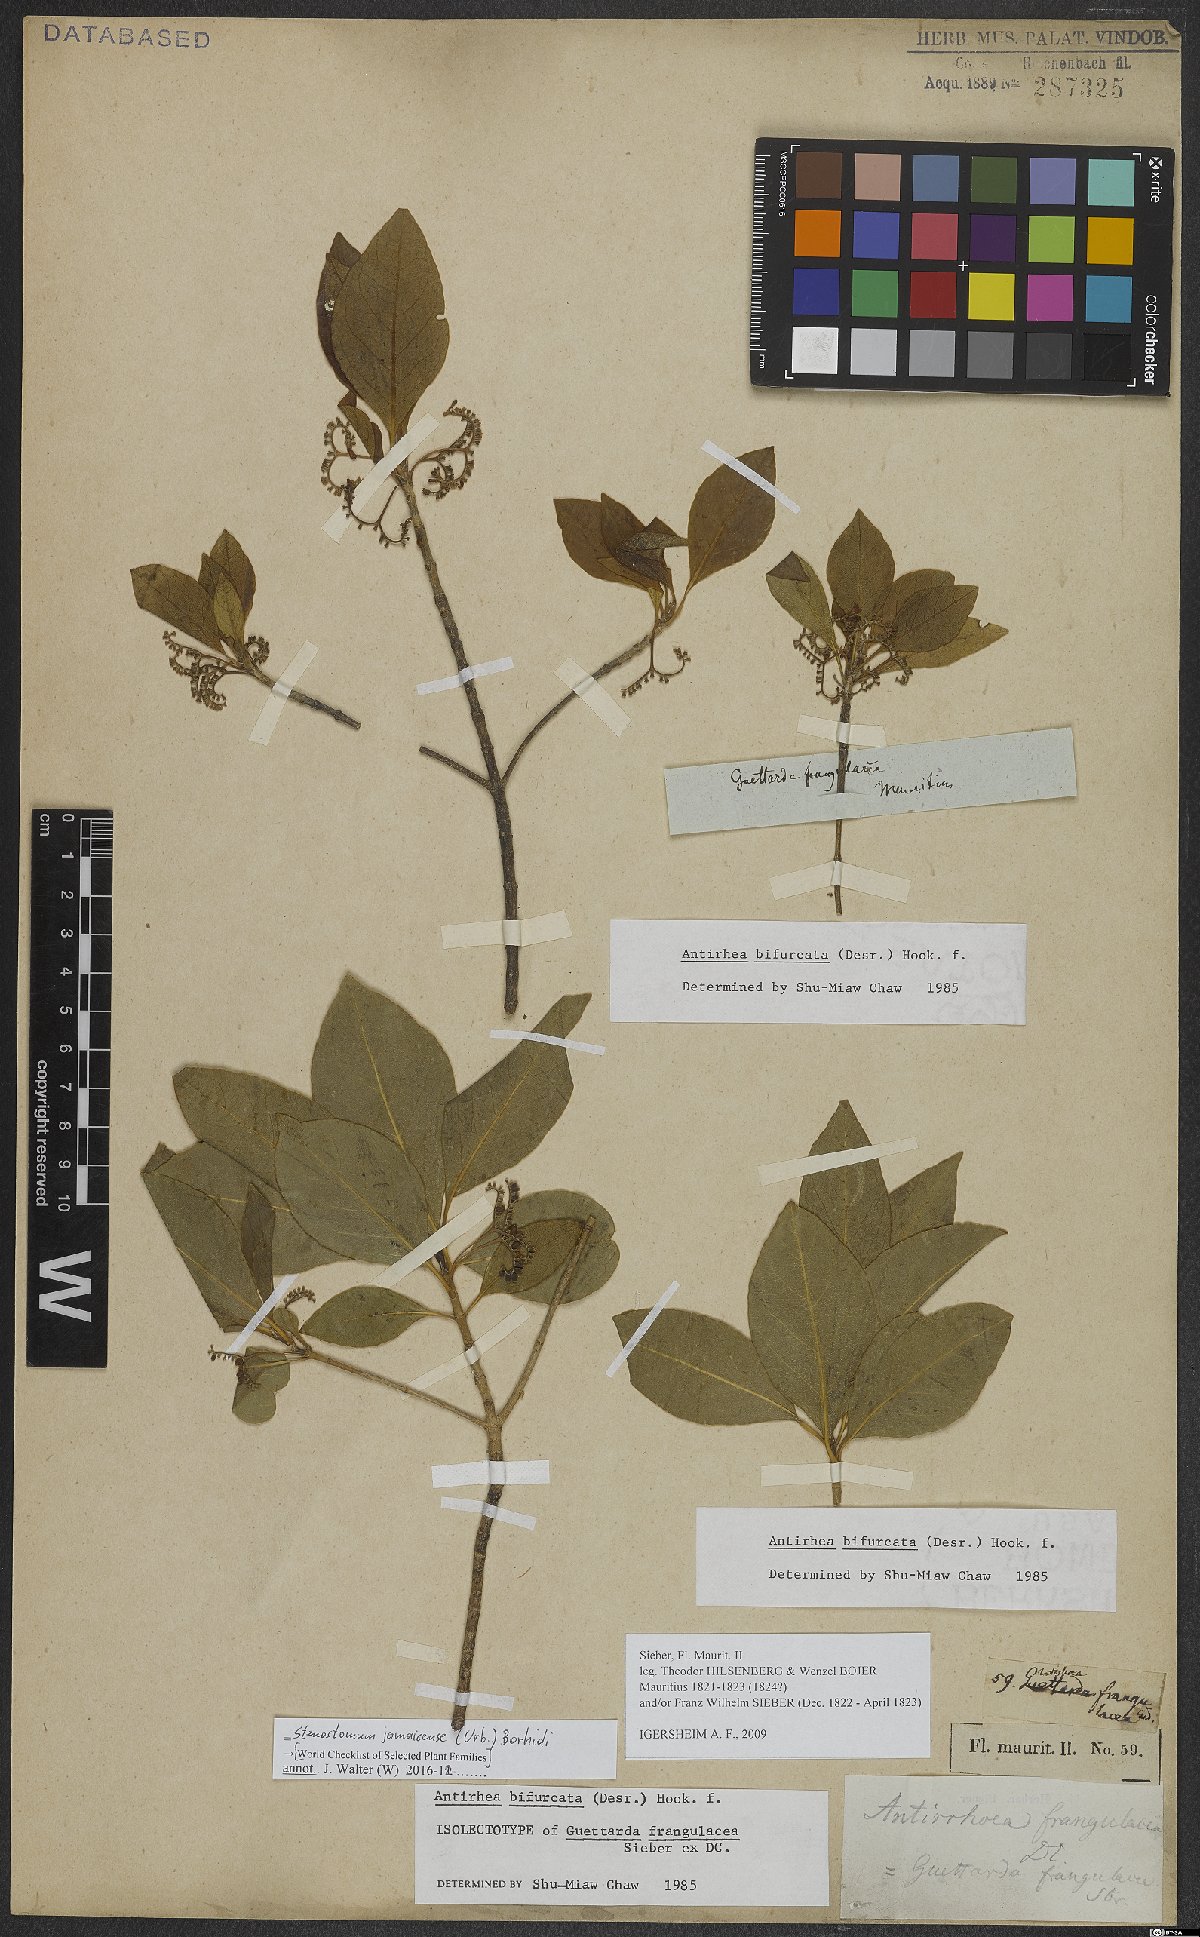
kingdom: Plantae
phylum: Tracheophyta
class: Magnoliopsida
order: Gentianales
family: Rubiaceae
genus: Antirhea
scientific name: Antirhea bifurcata
